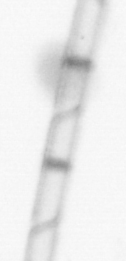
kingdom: Chromista
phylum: Ochrophyta
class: Bacillariophyceae
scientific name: Bacillariophyceae
